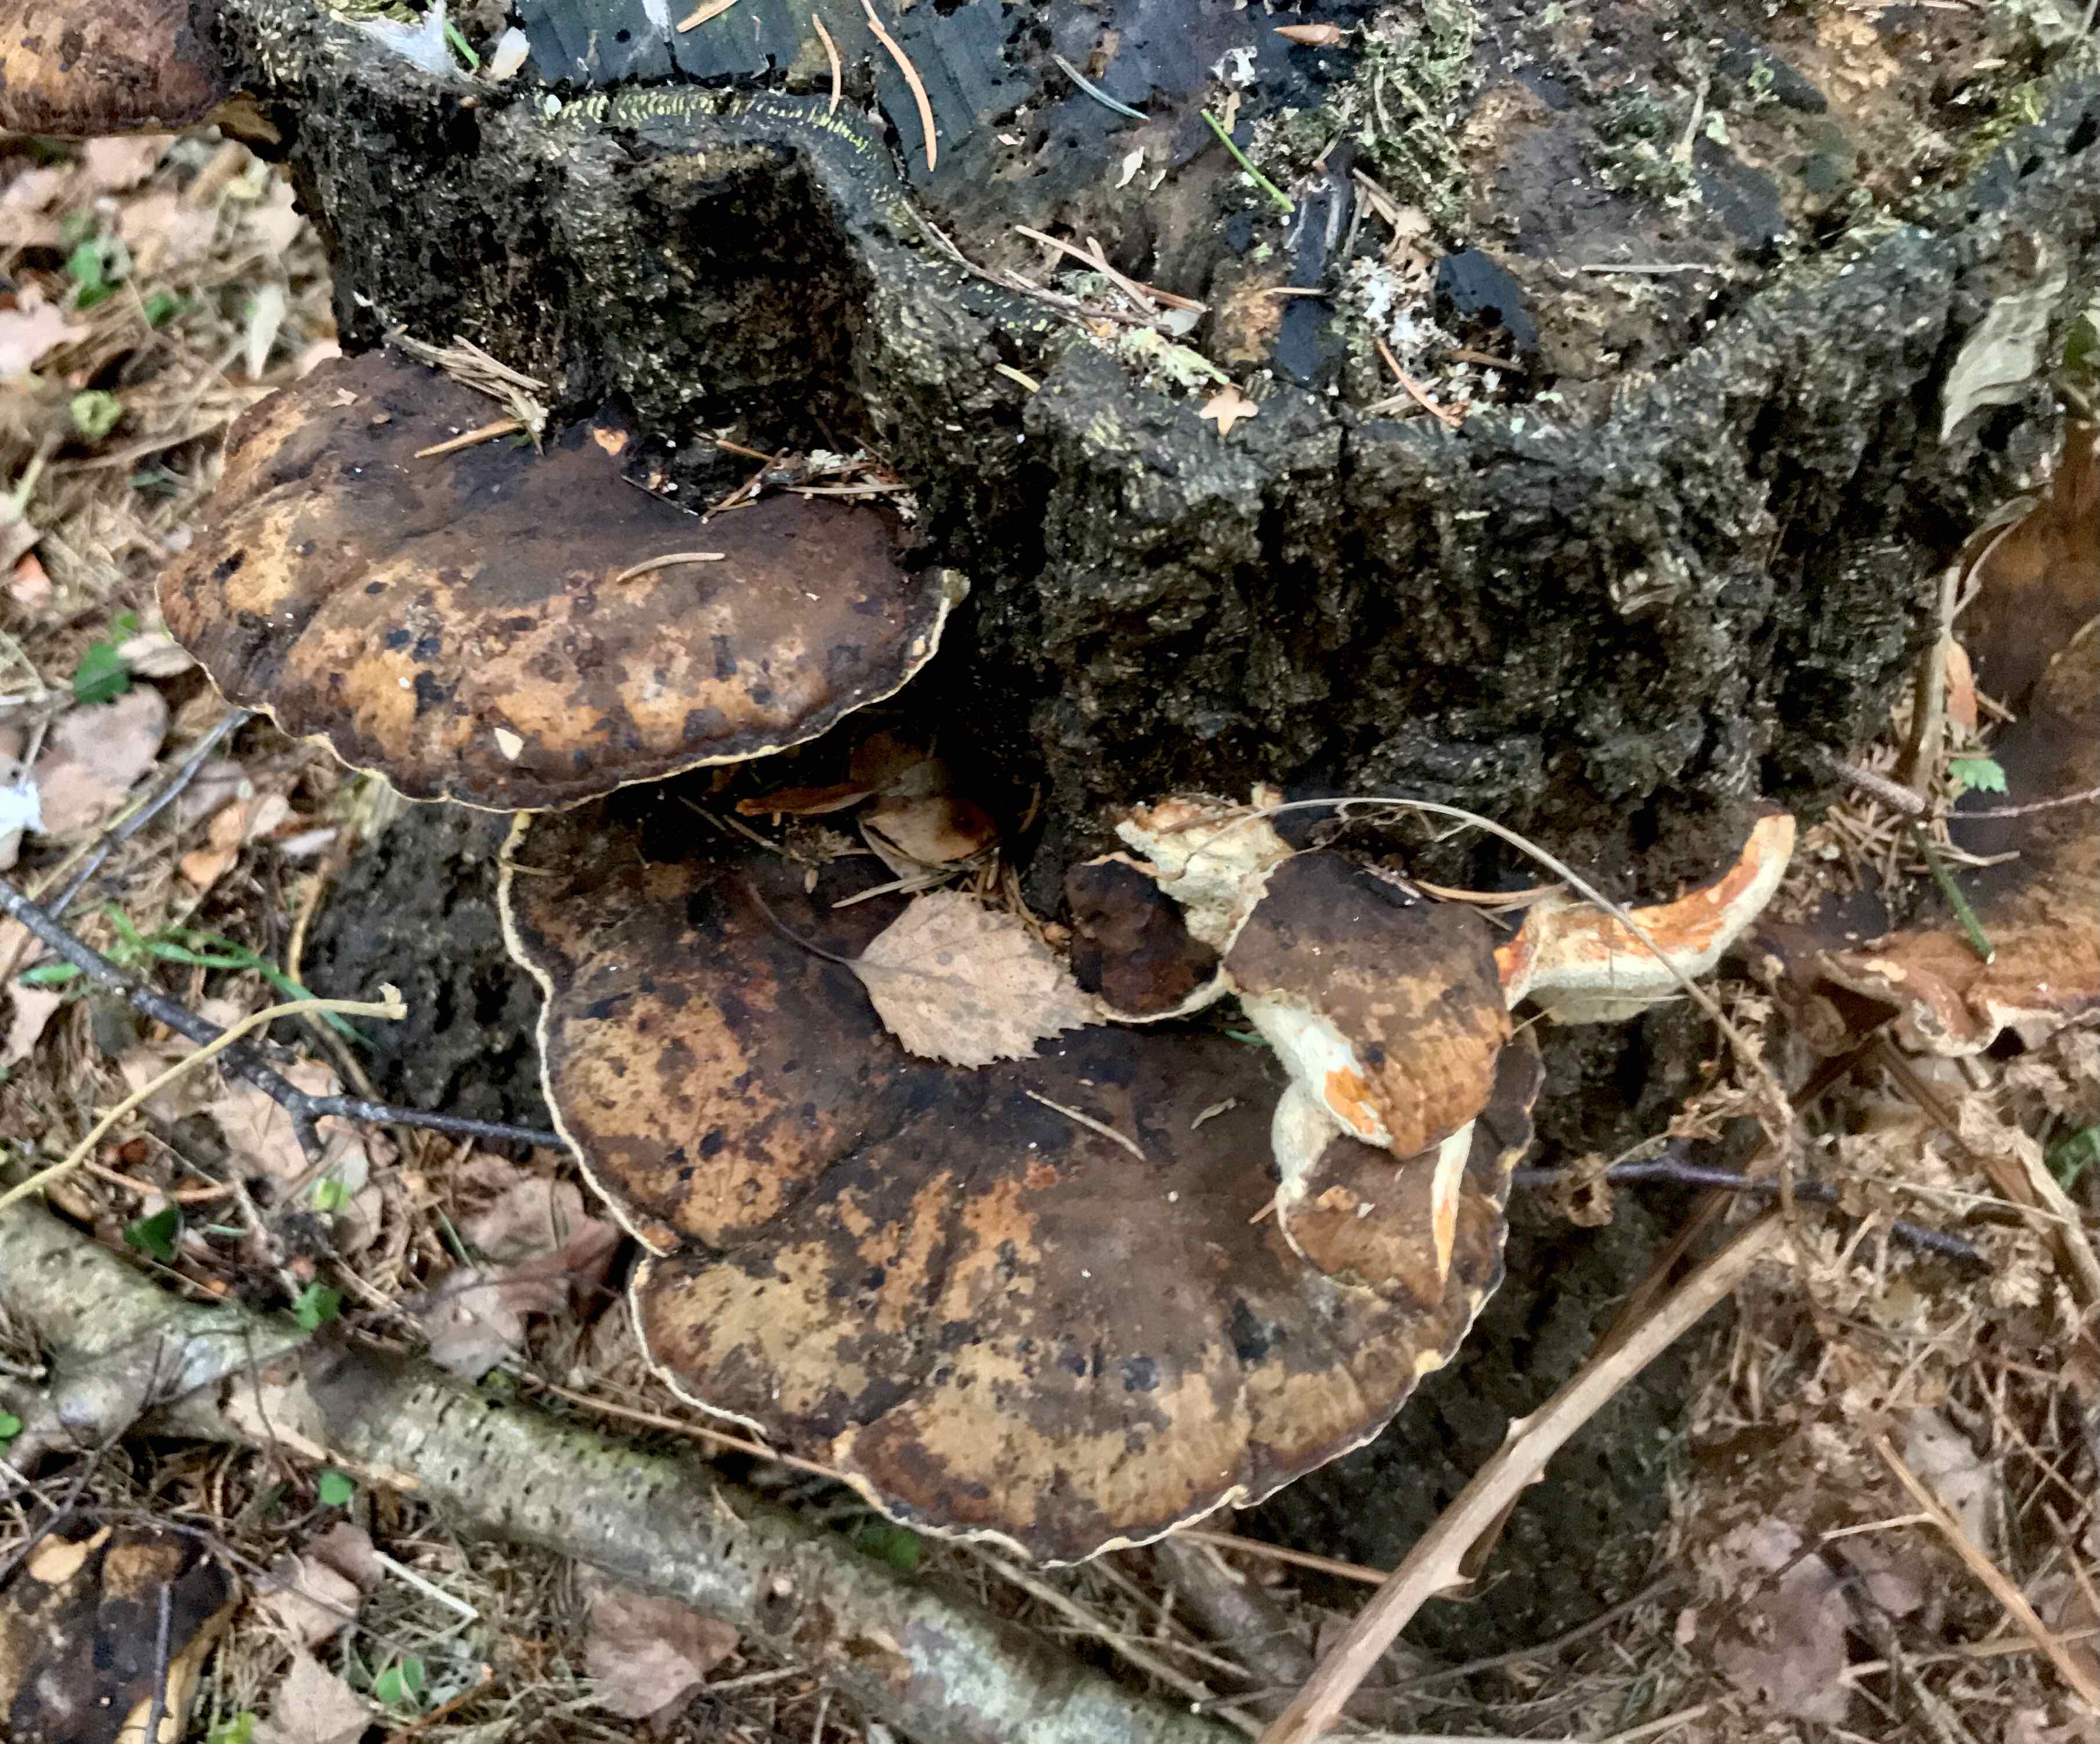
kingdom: Fungi
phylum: Basidiomycota
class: Agaricomycetes
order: Polyporales
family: Ischnodermataceae
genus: Ischnoderma
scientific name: Ischnoderma resinosum
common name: løv-tjæreporesvamp
